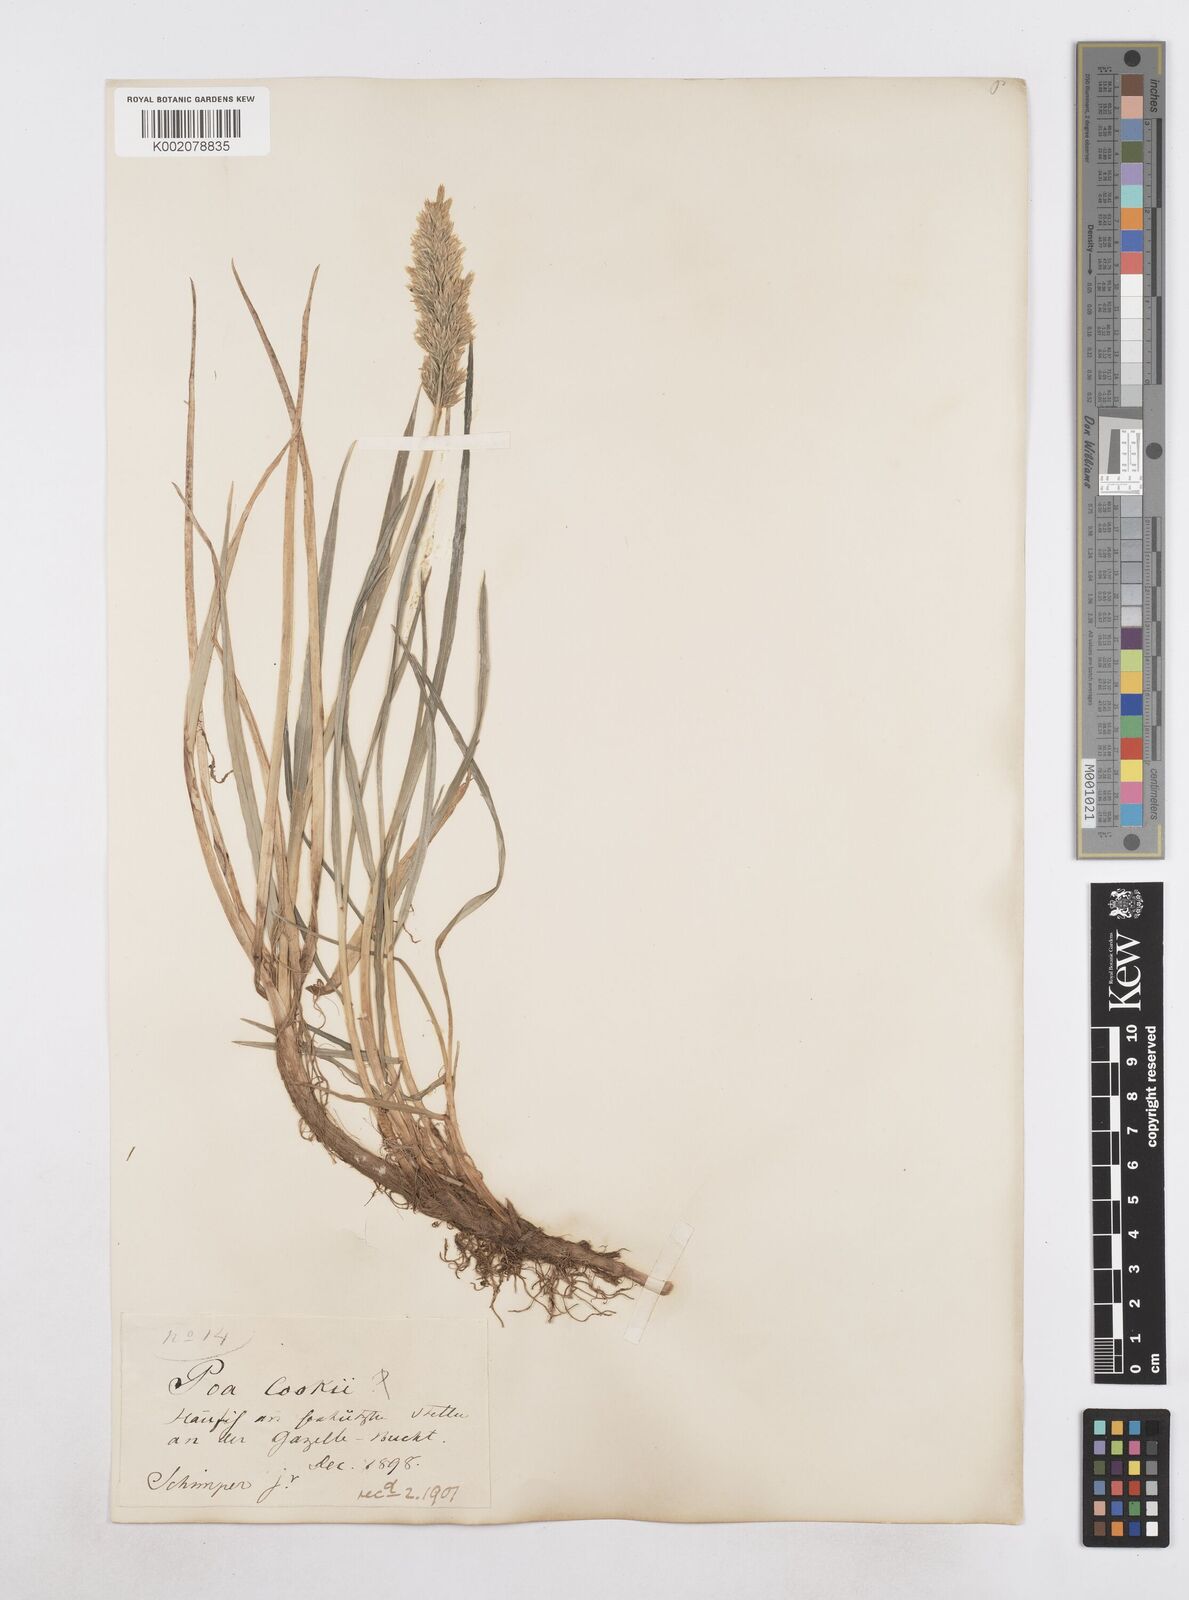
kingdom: Plantae
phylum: Tracheophyta
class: Liliopsida
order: Poales
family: Poaceae
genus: Poa
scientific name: Poa cookii
